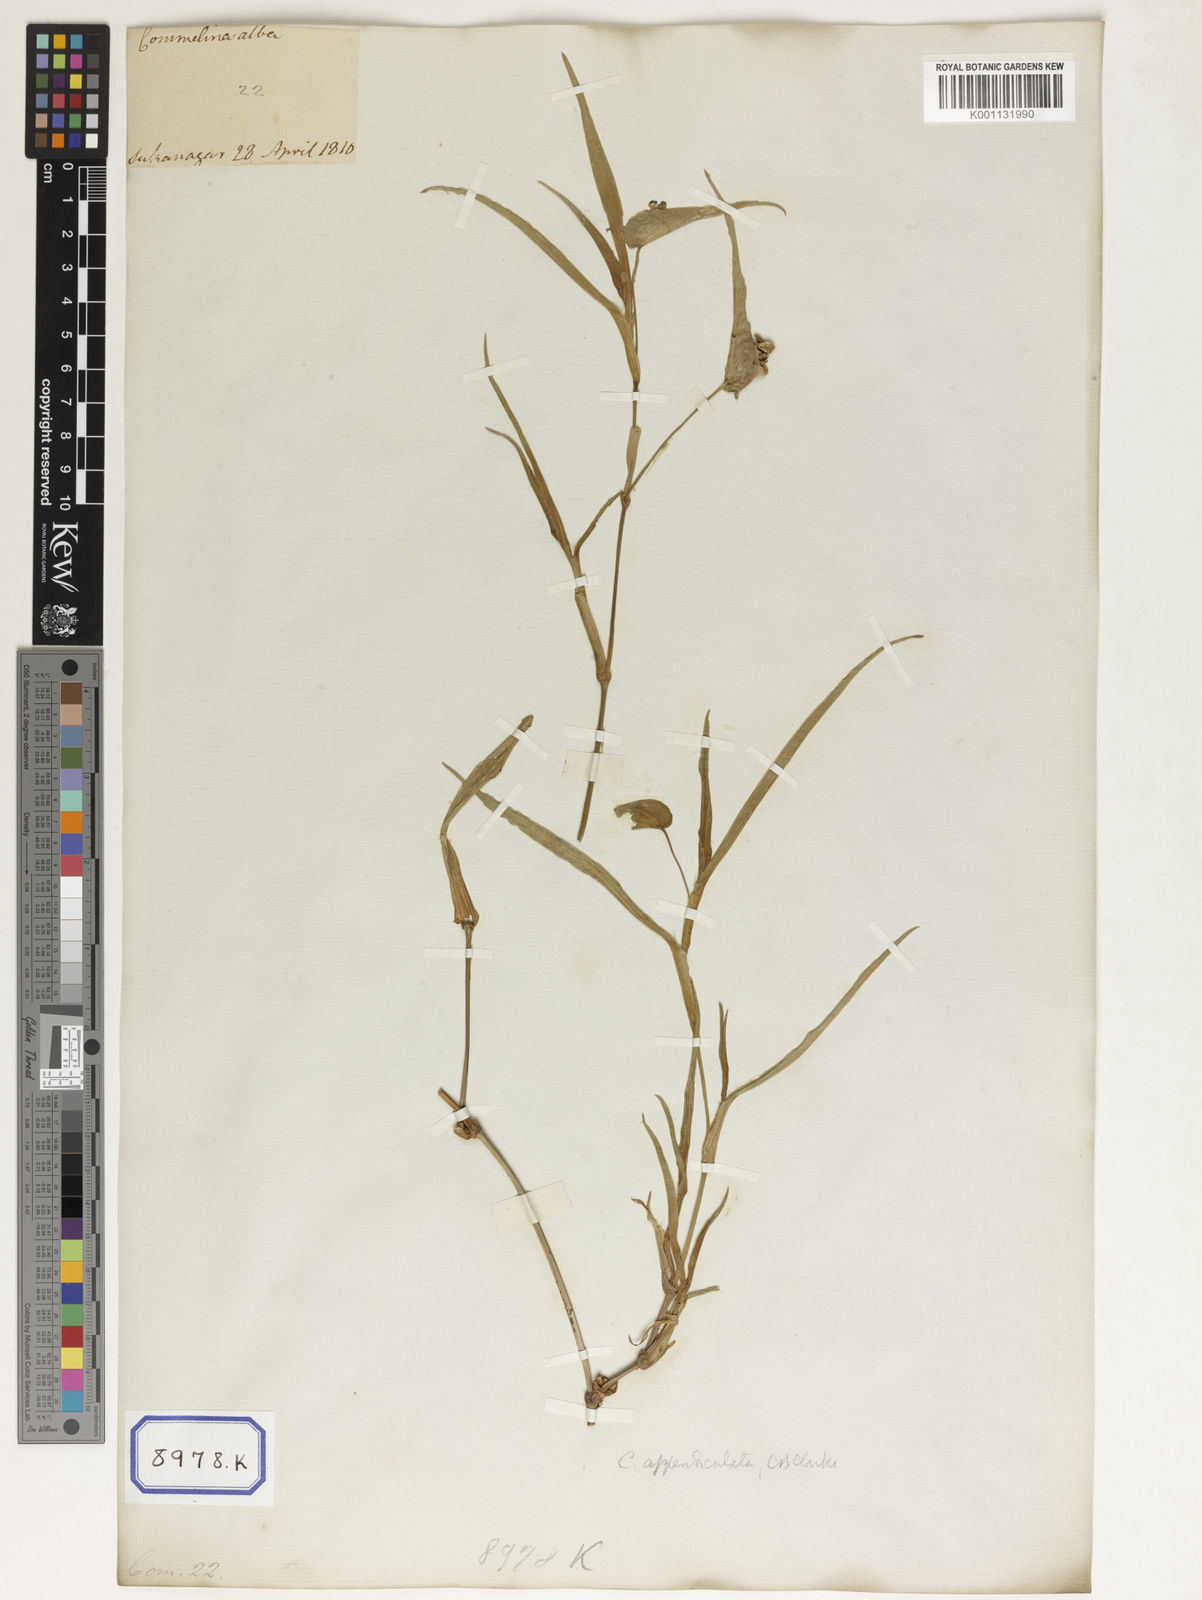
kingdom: Plantae
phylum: Tracheophyta
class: Liliopsida
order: Commelinales
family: Commelinaceae
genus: Commelina
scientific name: Commelina communis
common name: Asiatic dayflower
